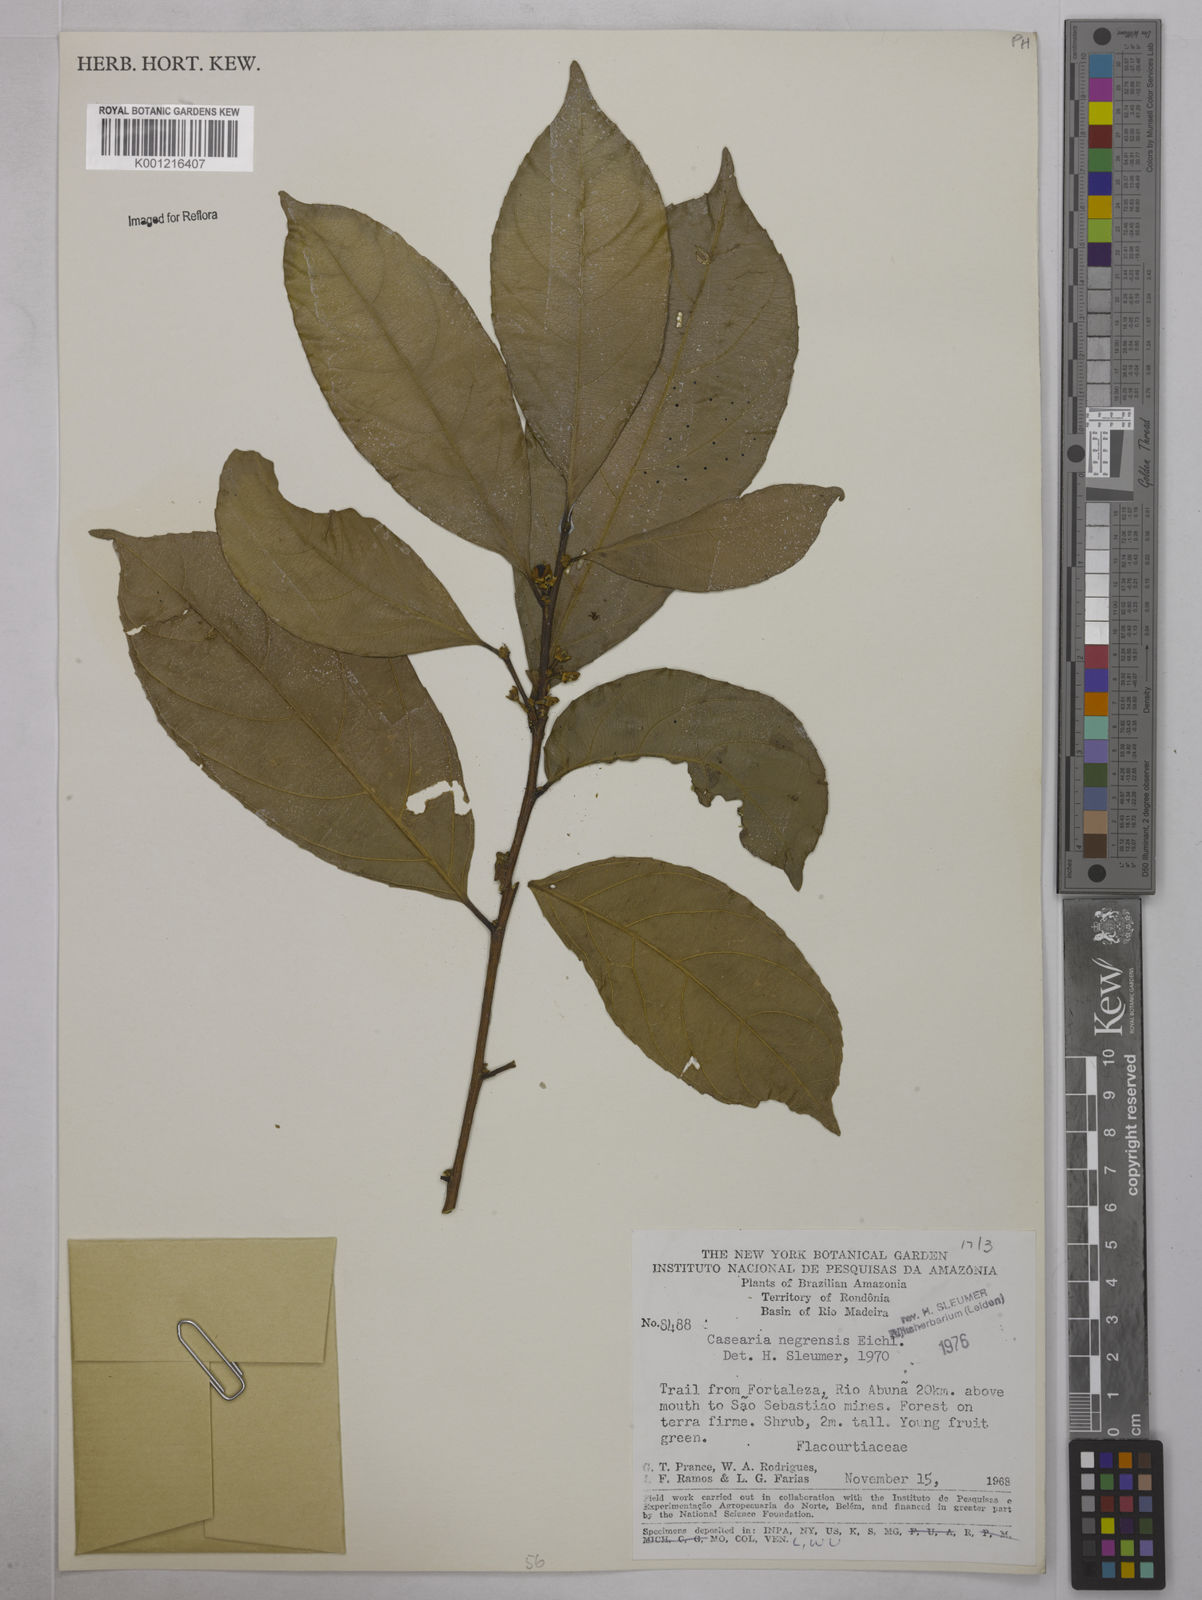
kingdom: Plantae
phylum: Tracheophyta
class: Magnoliopsida
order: Malpighiales
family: Salicaceae
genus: Casearia
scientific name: Casearia negrensis
